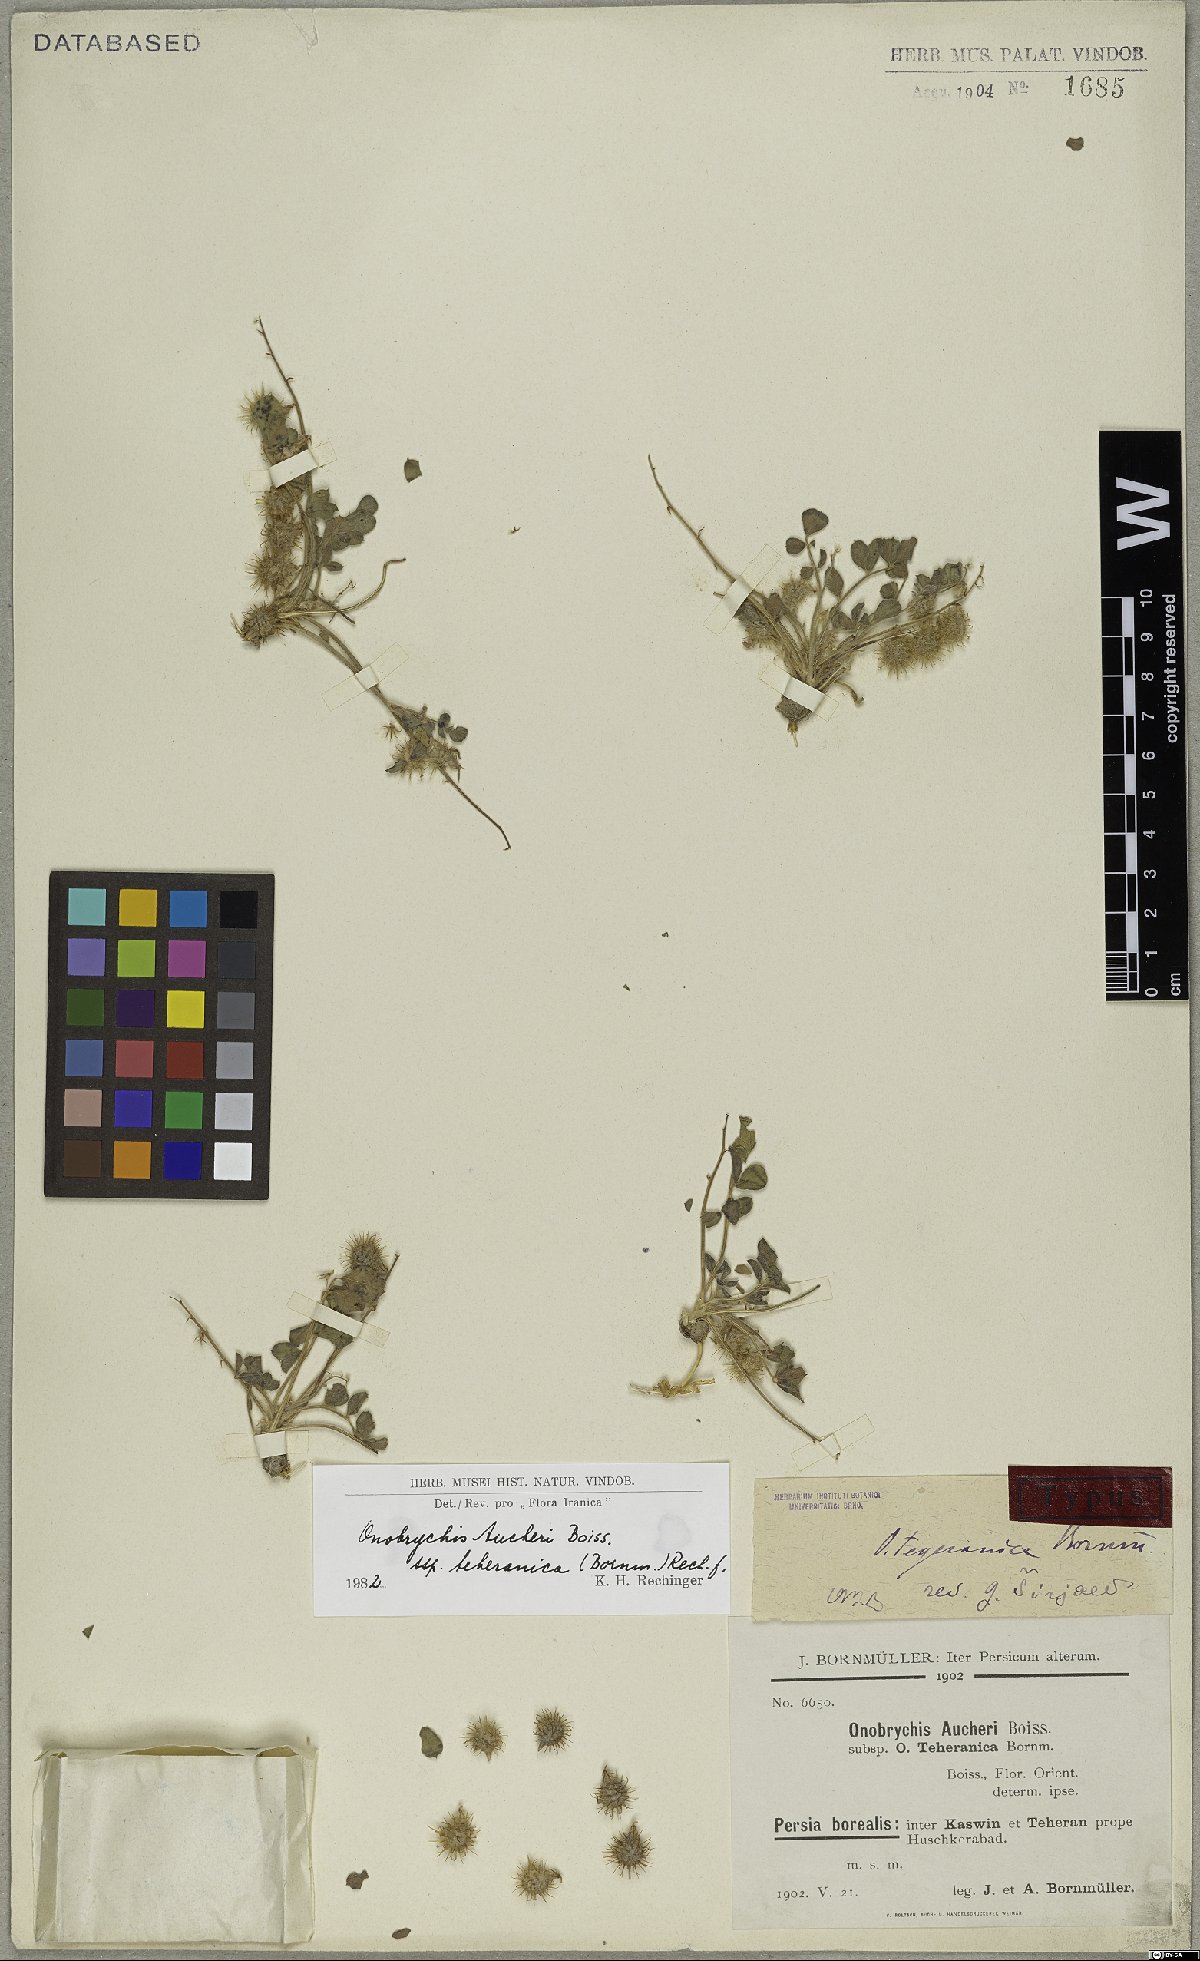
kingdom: Plantae
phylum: Tracheophyta
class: Magnoliopsida
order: Fabales
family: Fabaceae
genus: Onobrychis
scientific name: Onobrychis aucheri
